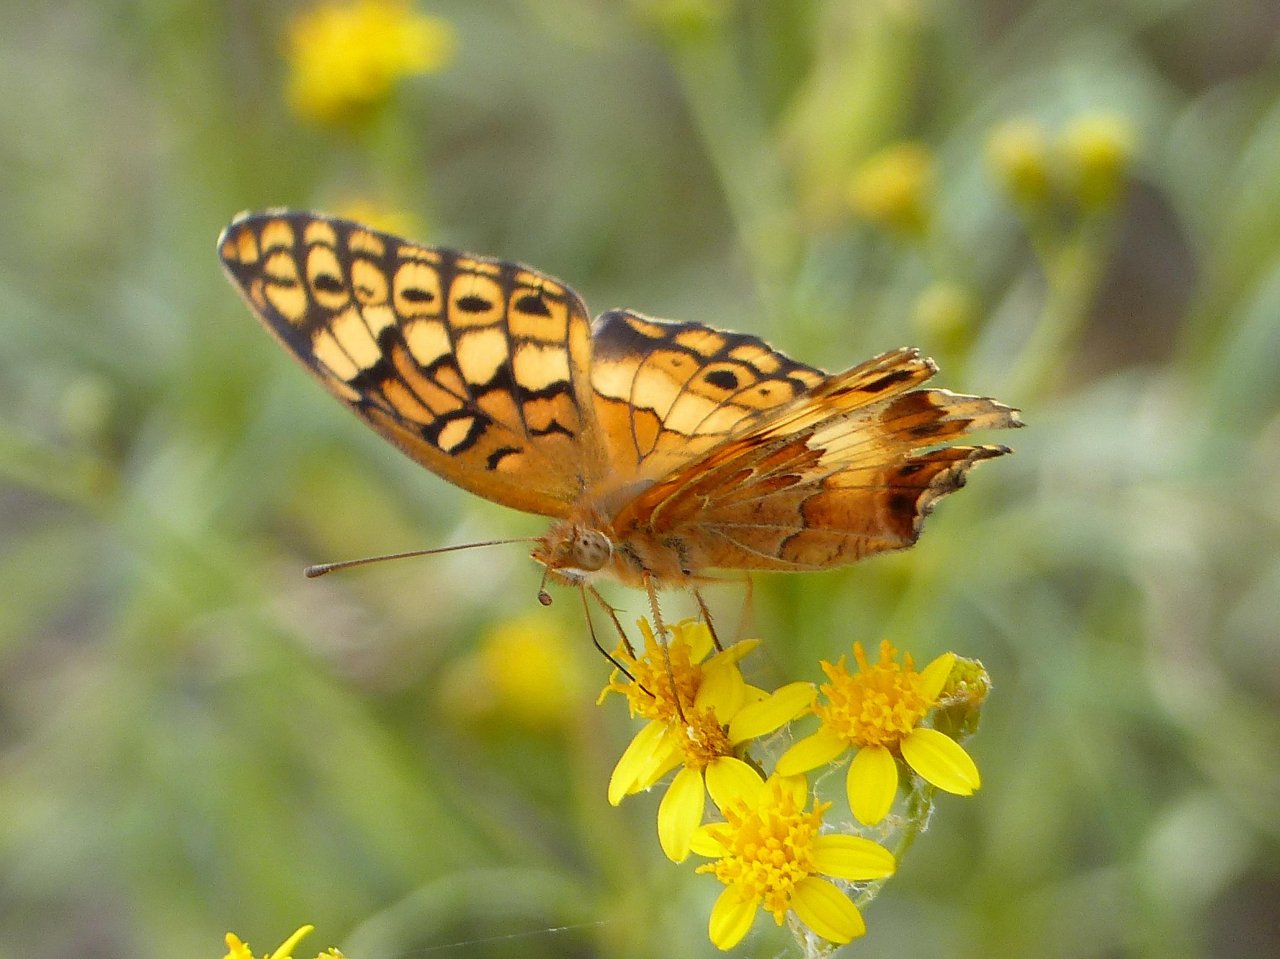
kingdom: Animalia
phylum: Arthropoda
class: Insecta
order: Lepidoptera
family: Nymphalidae
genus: Euptoieta
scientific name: Euptoieta claudia
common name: Variegated Fritillary
